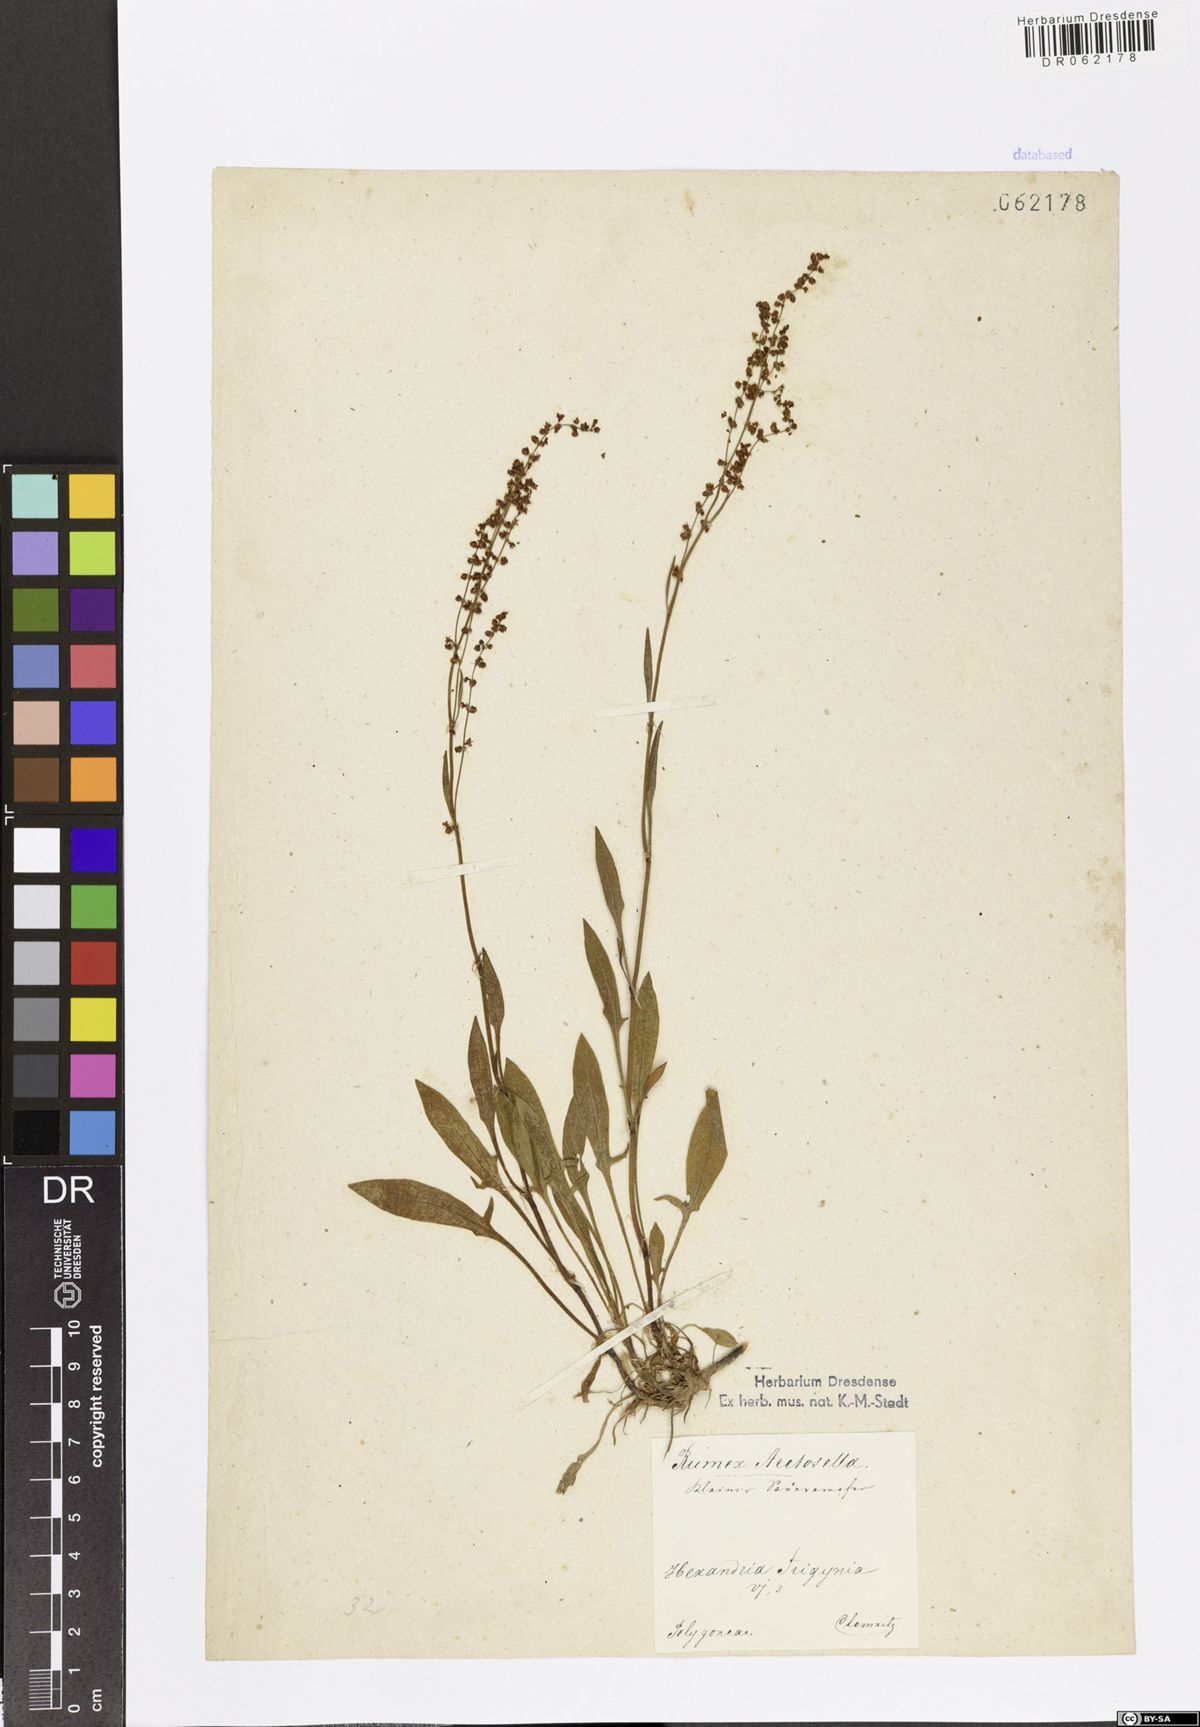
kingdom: Plantae
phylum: Tracheophyta
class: Magnoliopsida
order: Caryophyllales
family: Polygonaceae
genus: Rumex
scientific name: Rumex acetosella
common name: Common sheep sorrel
